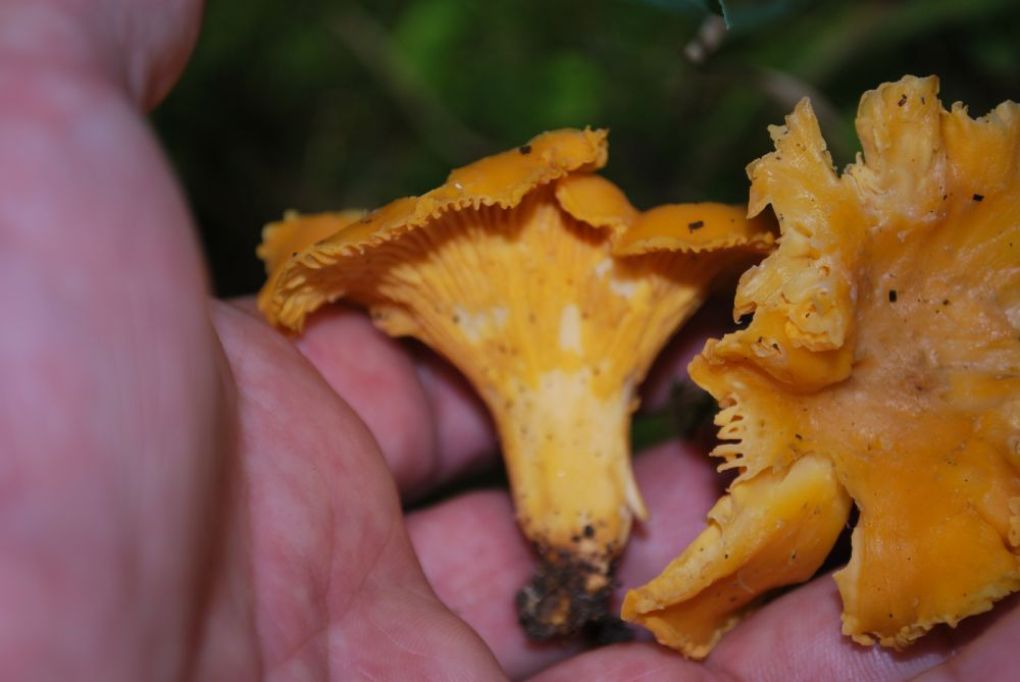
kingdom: Fungi
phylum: Basidiomycota
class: Agaricomycetes
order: Cantharellales
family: Hydnaceae
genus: Cantharellus
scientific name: Cantharellus cibarius
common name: almindelig kantarel
